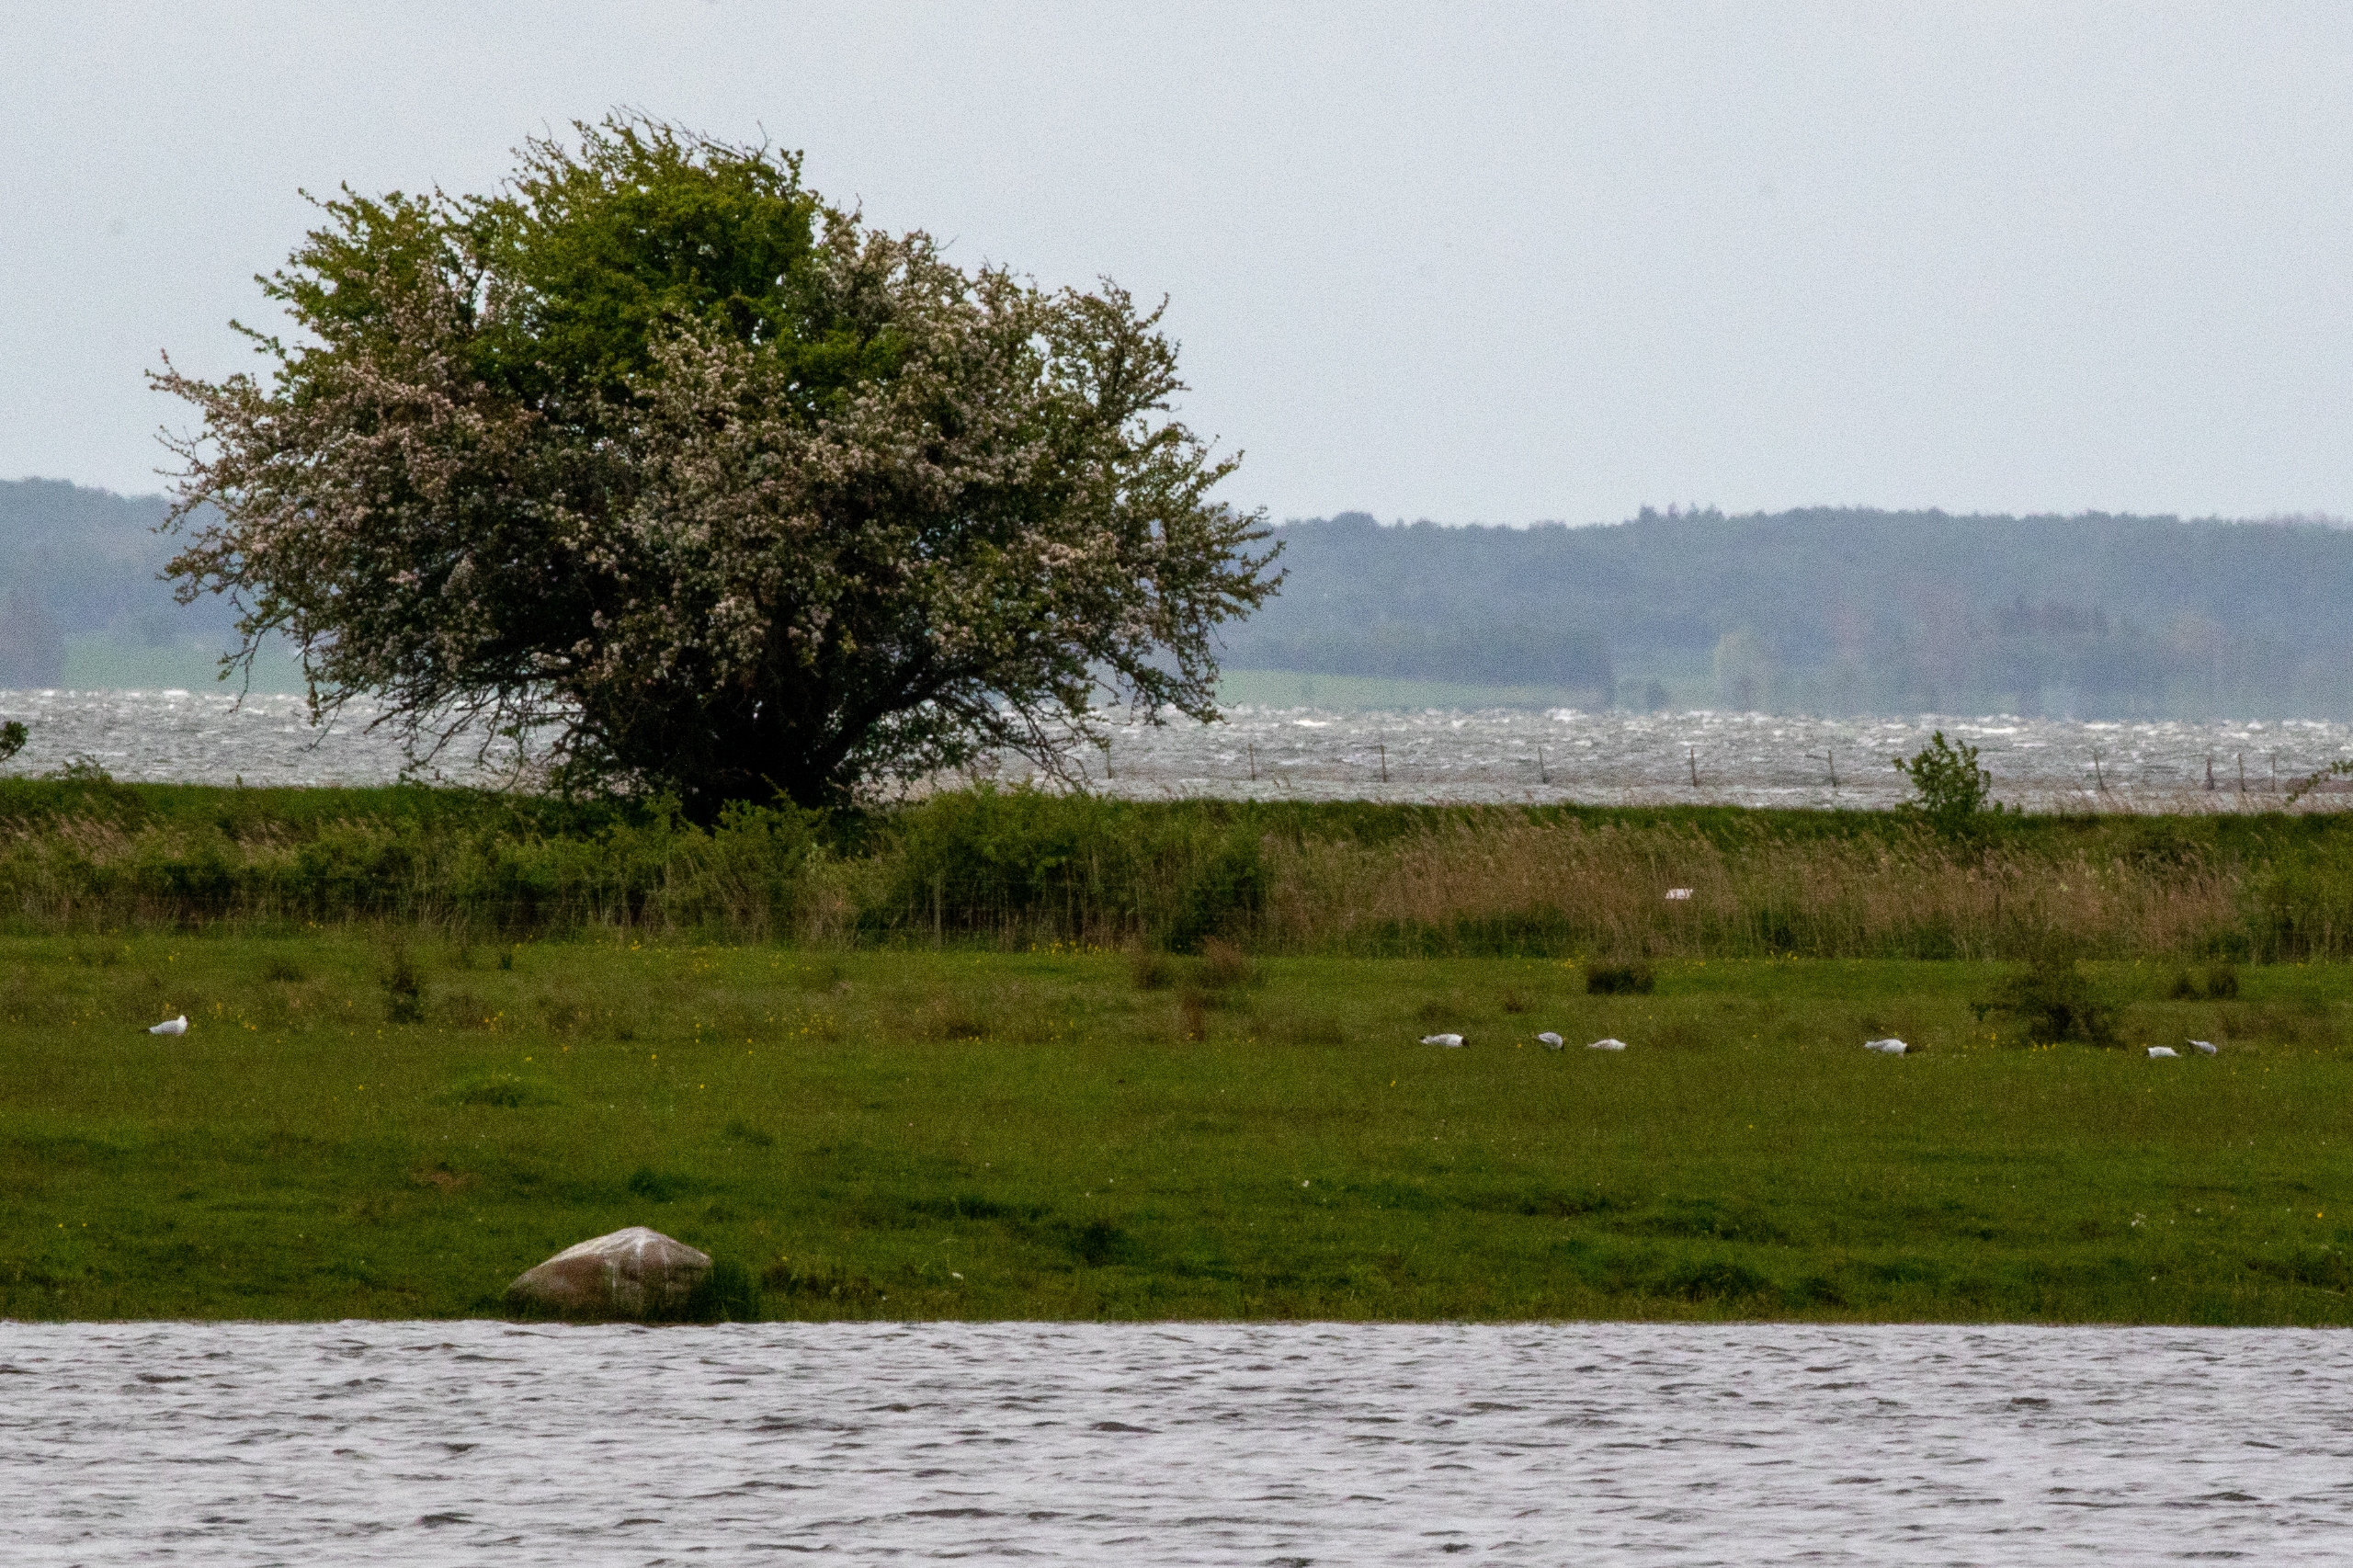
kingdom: Animalia
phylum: Chordata
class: Aves
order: Charadriiformes
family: Laridae
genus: Chroicocephalus
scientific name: Chroicocephalus ridibundus
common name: Hættemåge
